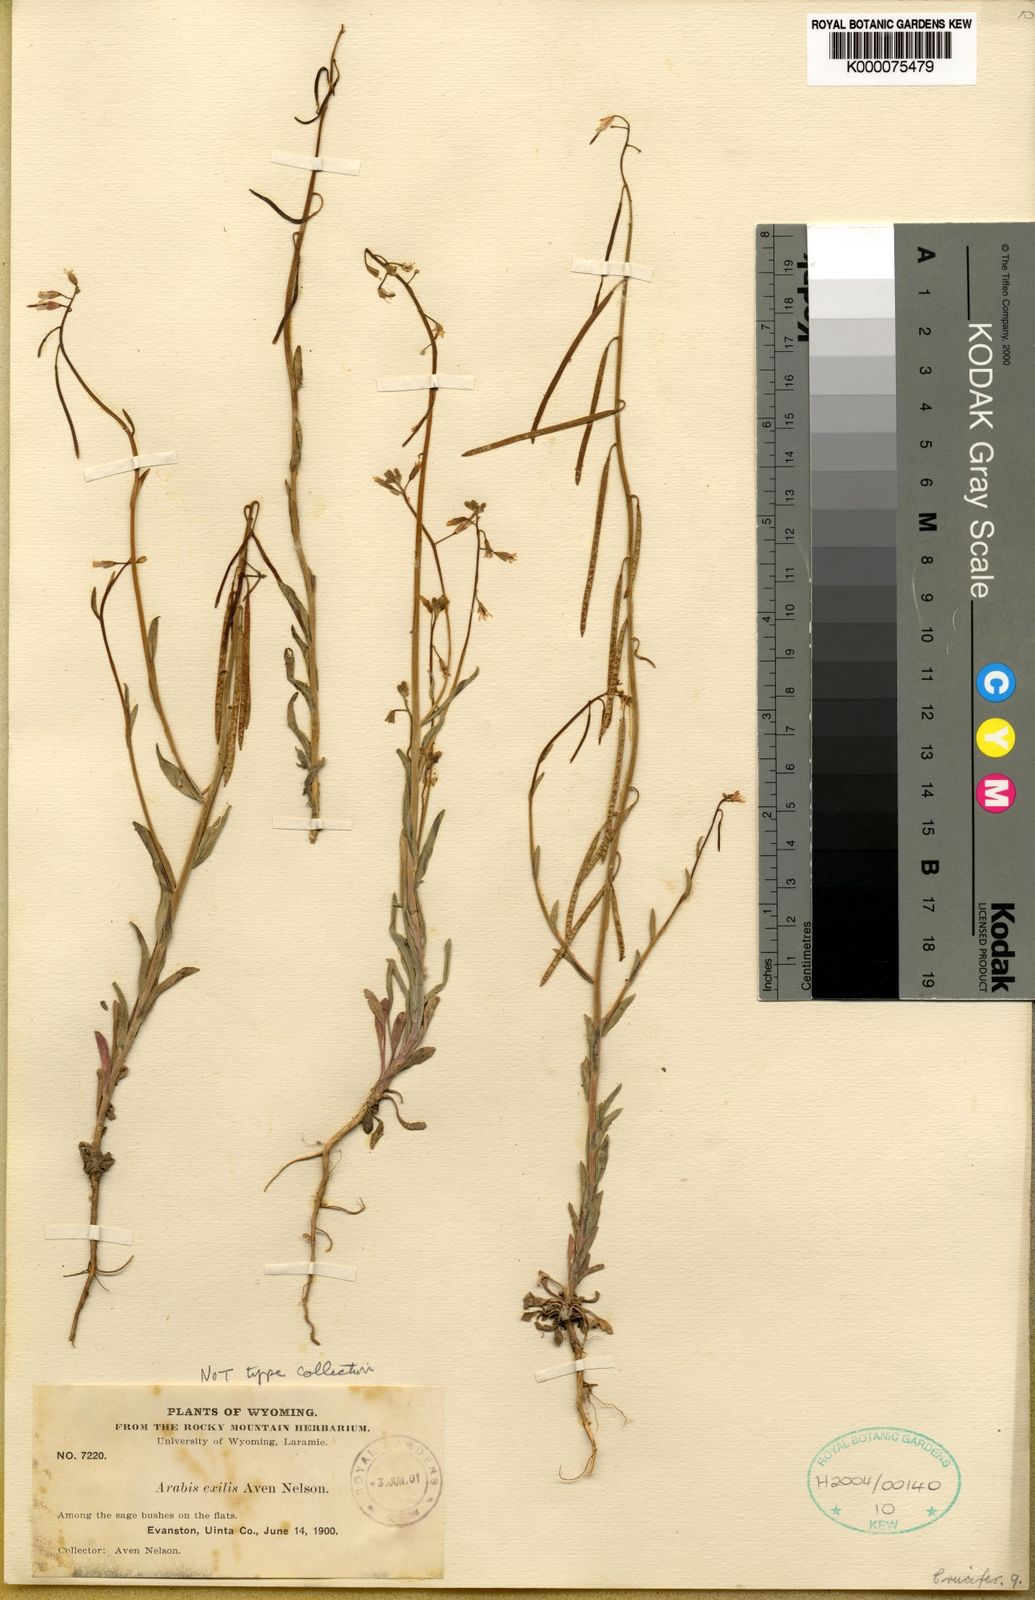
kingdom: Plantae
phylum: Tracheophyta
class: Magnoliopsida
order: Brassicales
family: Brassicaceae
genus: Boechera
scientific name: Boechera retrofracta
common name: Dangling suncress
